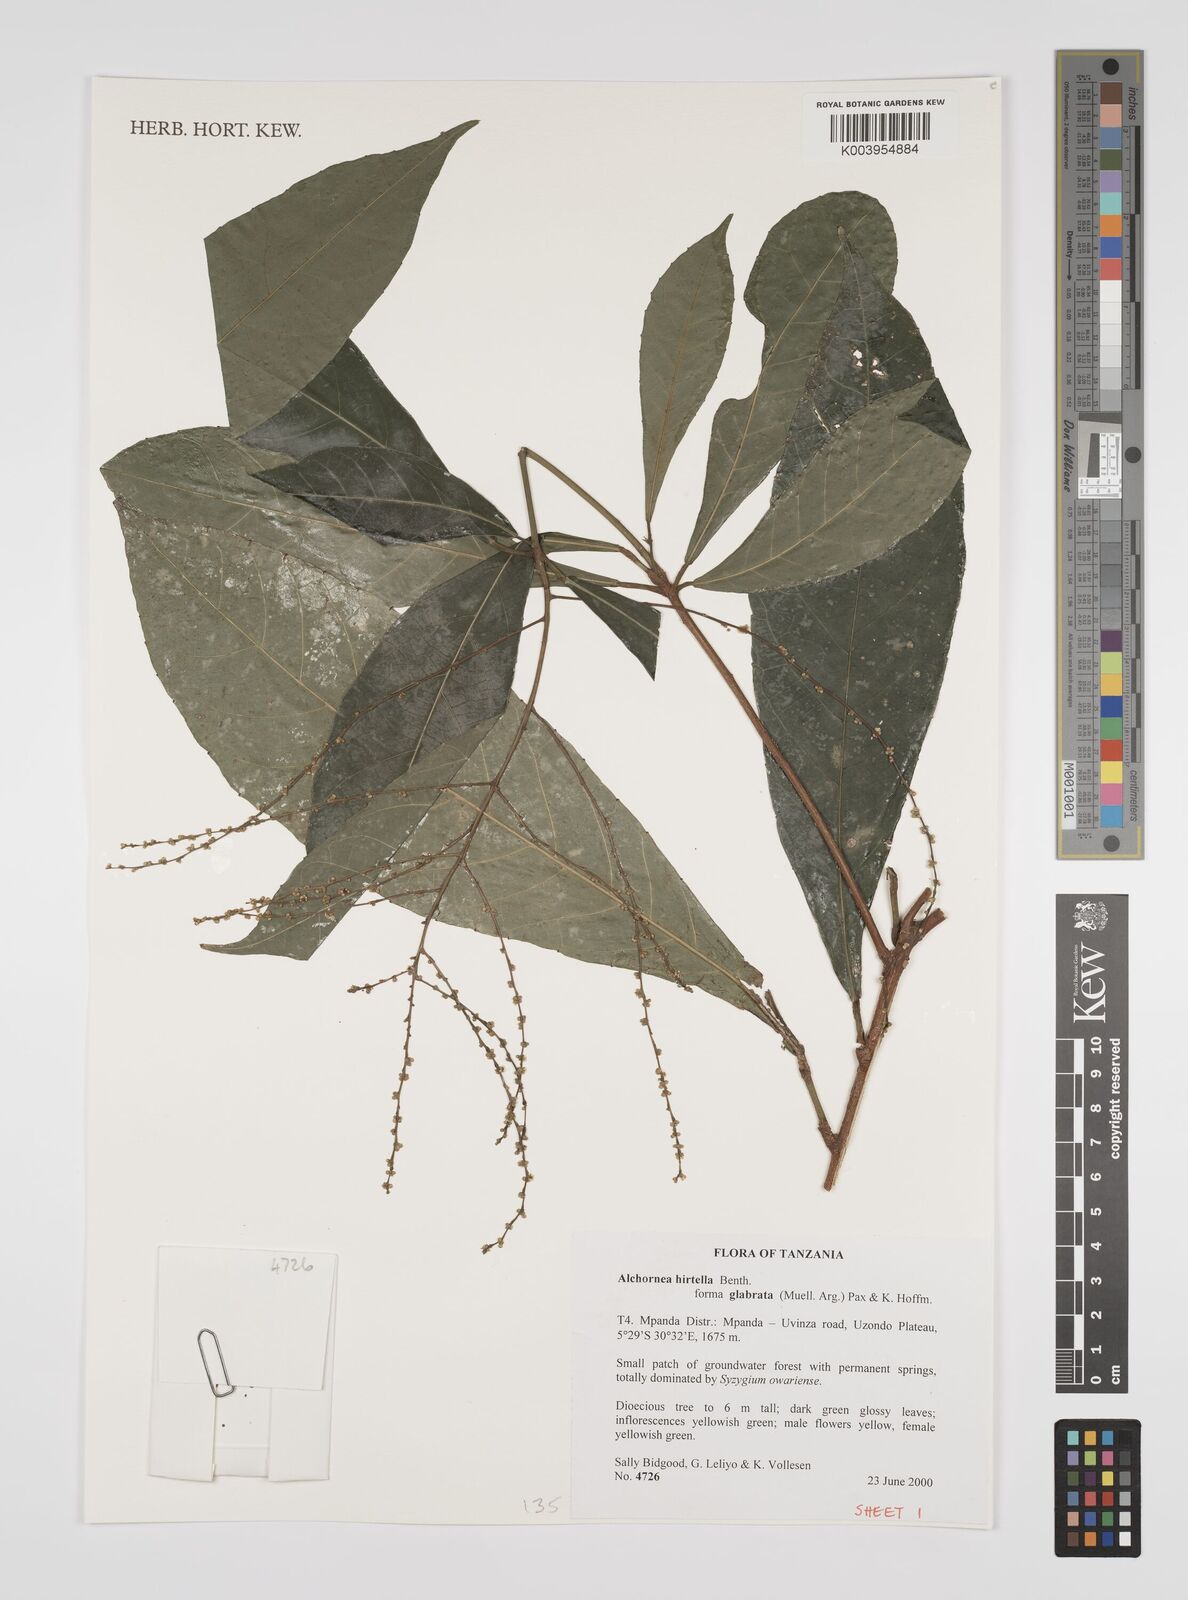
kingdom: Plantae
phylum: Tracheophyta
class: Magnoliopsida
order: Malpighiales
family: Euphorbiaceae
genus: Alchornea
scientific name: Alchornea hirtella
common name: Forest bead-string
